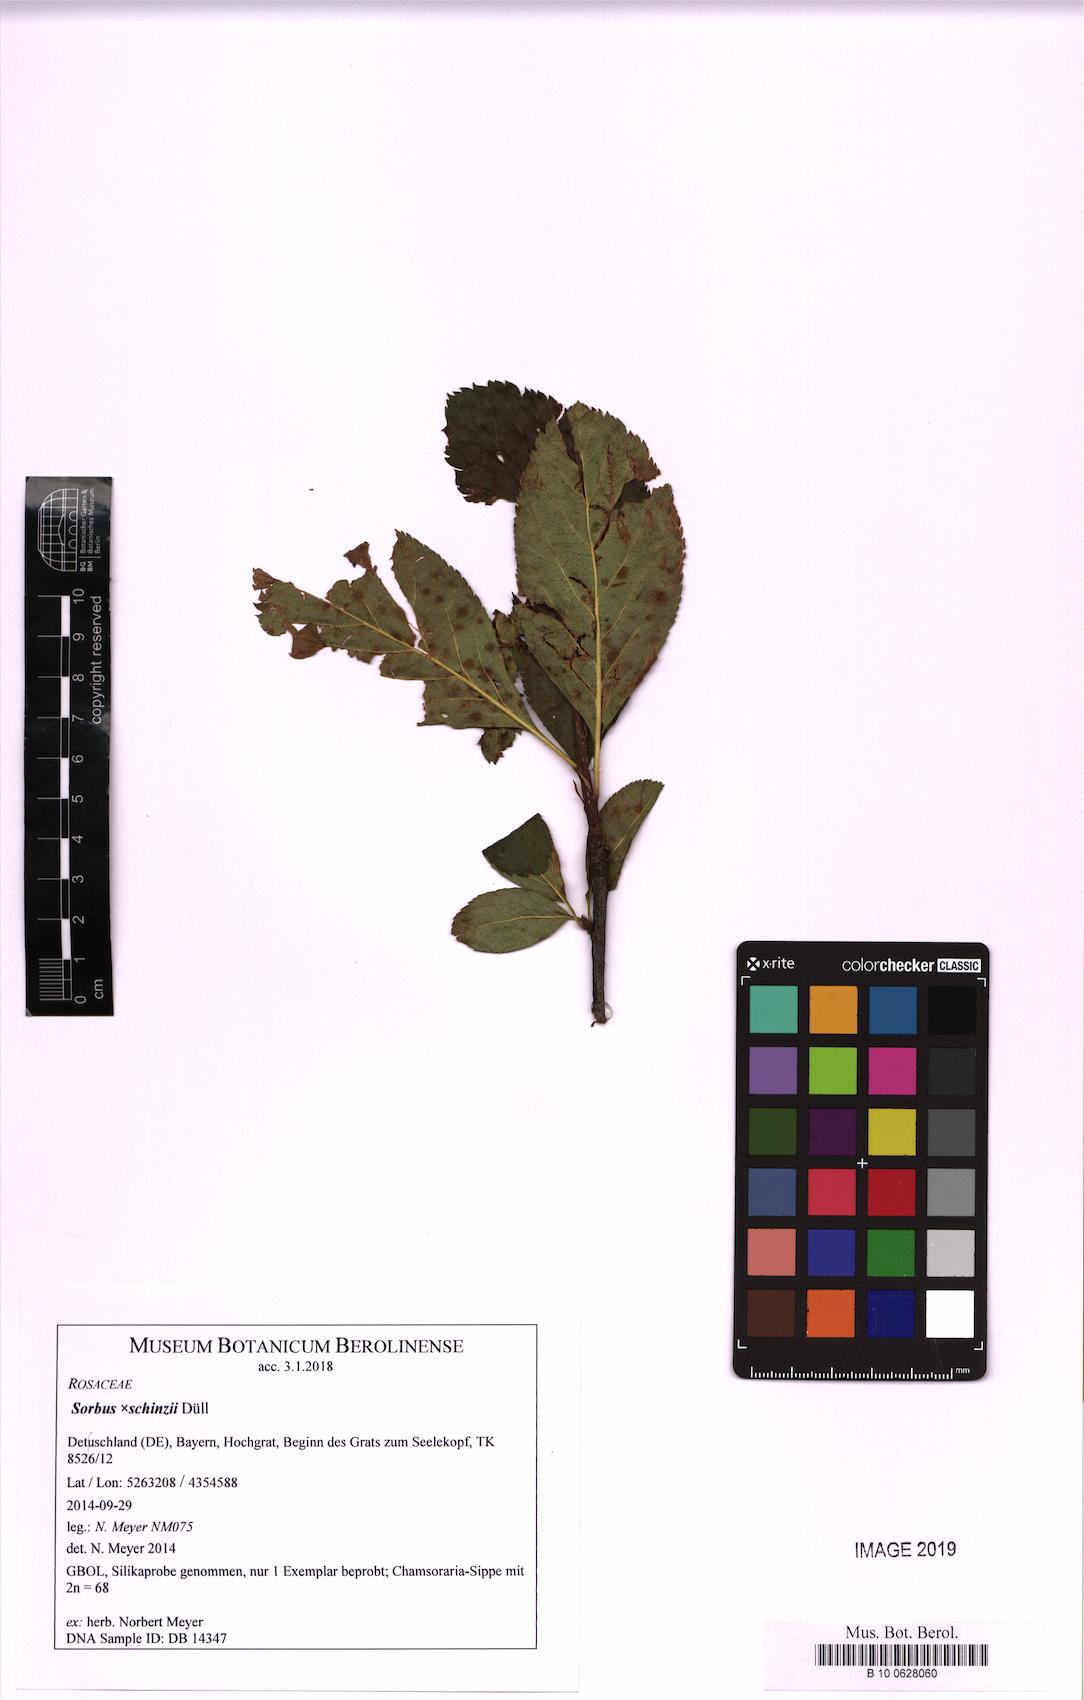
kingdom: Plantae
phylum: Tracheophyta
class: Magnoliopsida
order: Rosales
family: Rosaceae
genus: Normeyera
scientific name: Normeyera schinzii
